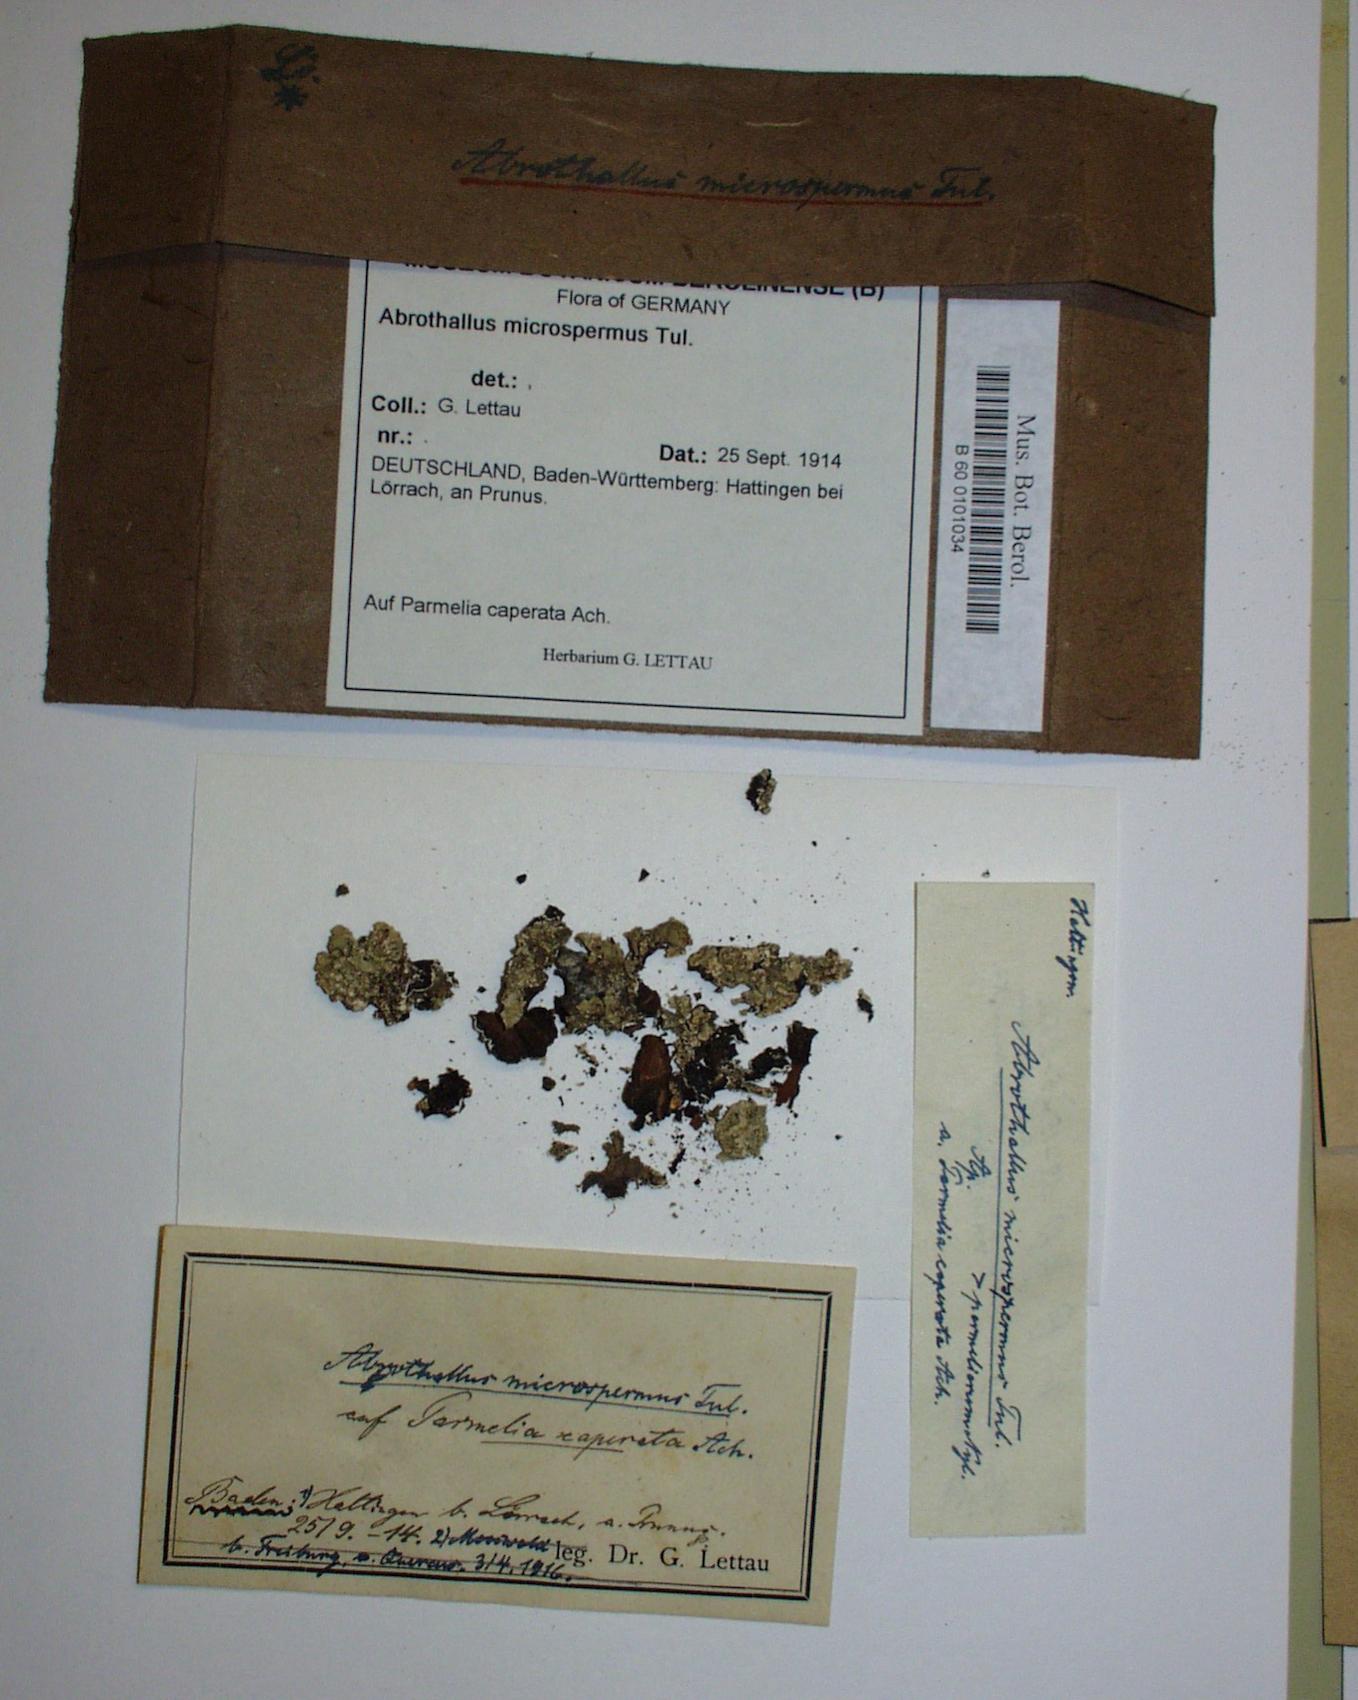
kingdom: Fungi
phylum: Ascomycota
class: Dothideomycetes
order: Abrothallales
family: Abrothallaceae
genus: Abrothallus
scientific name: Abrothallus microspermus
